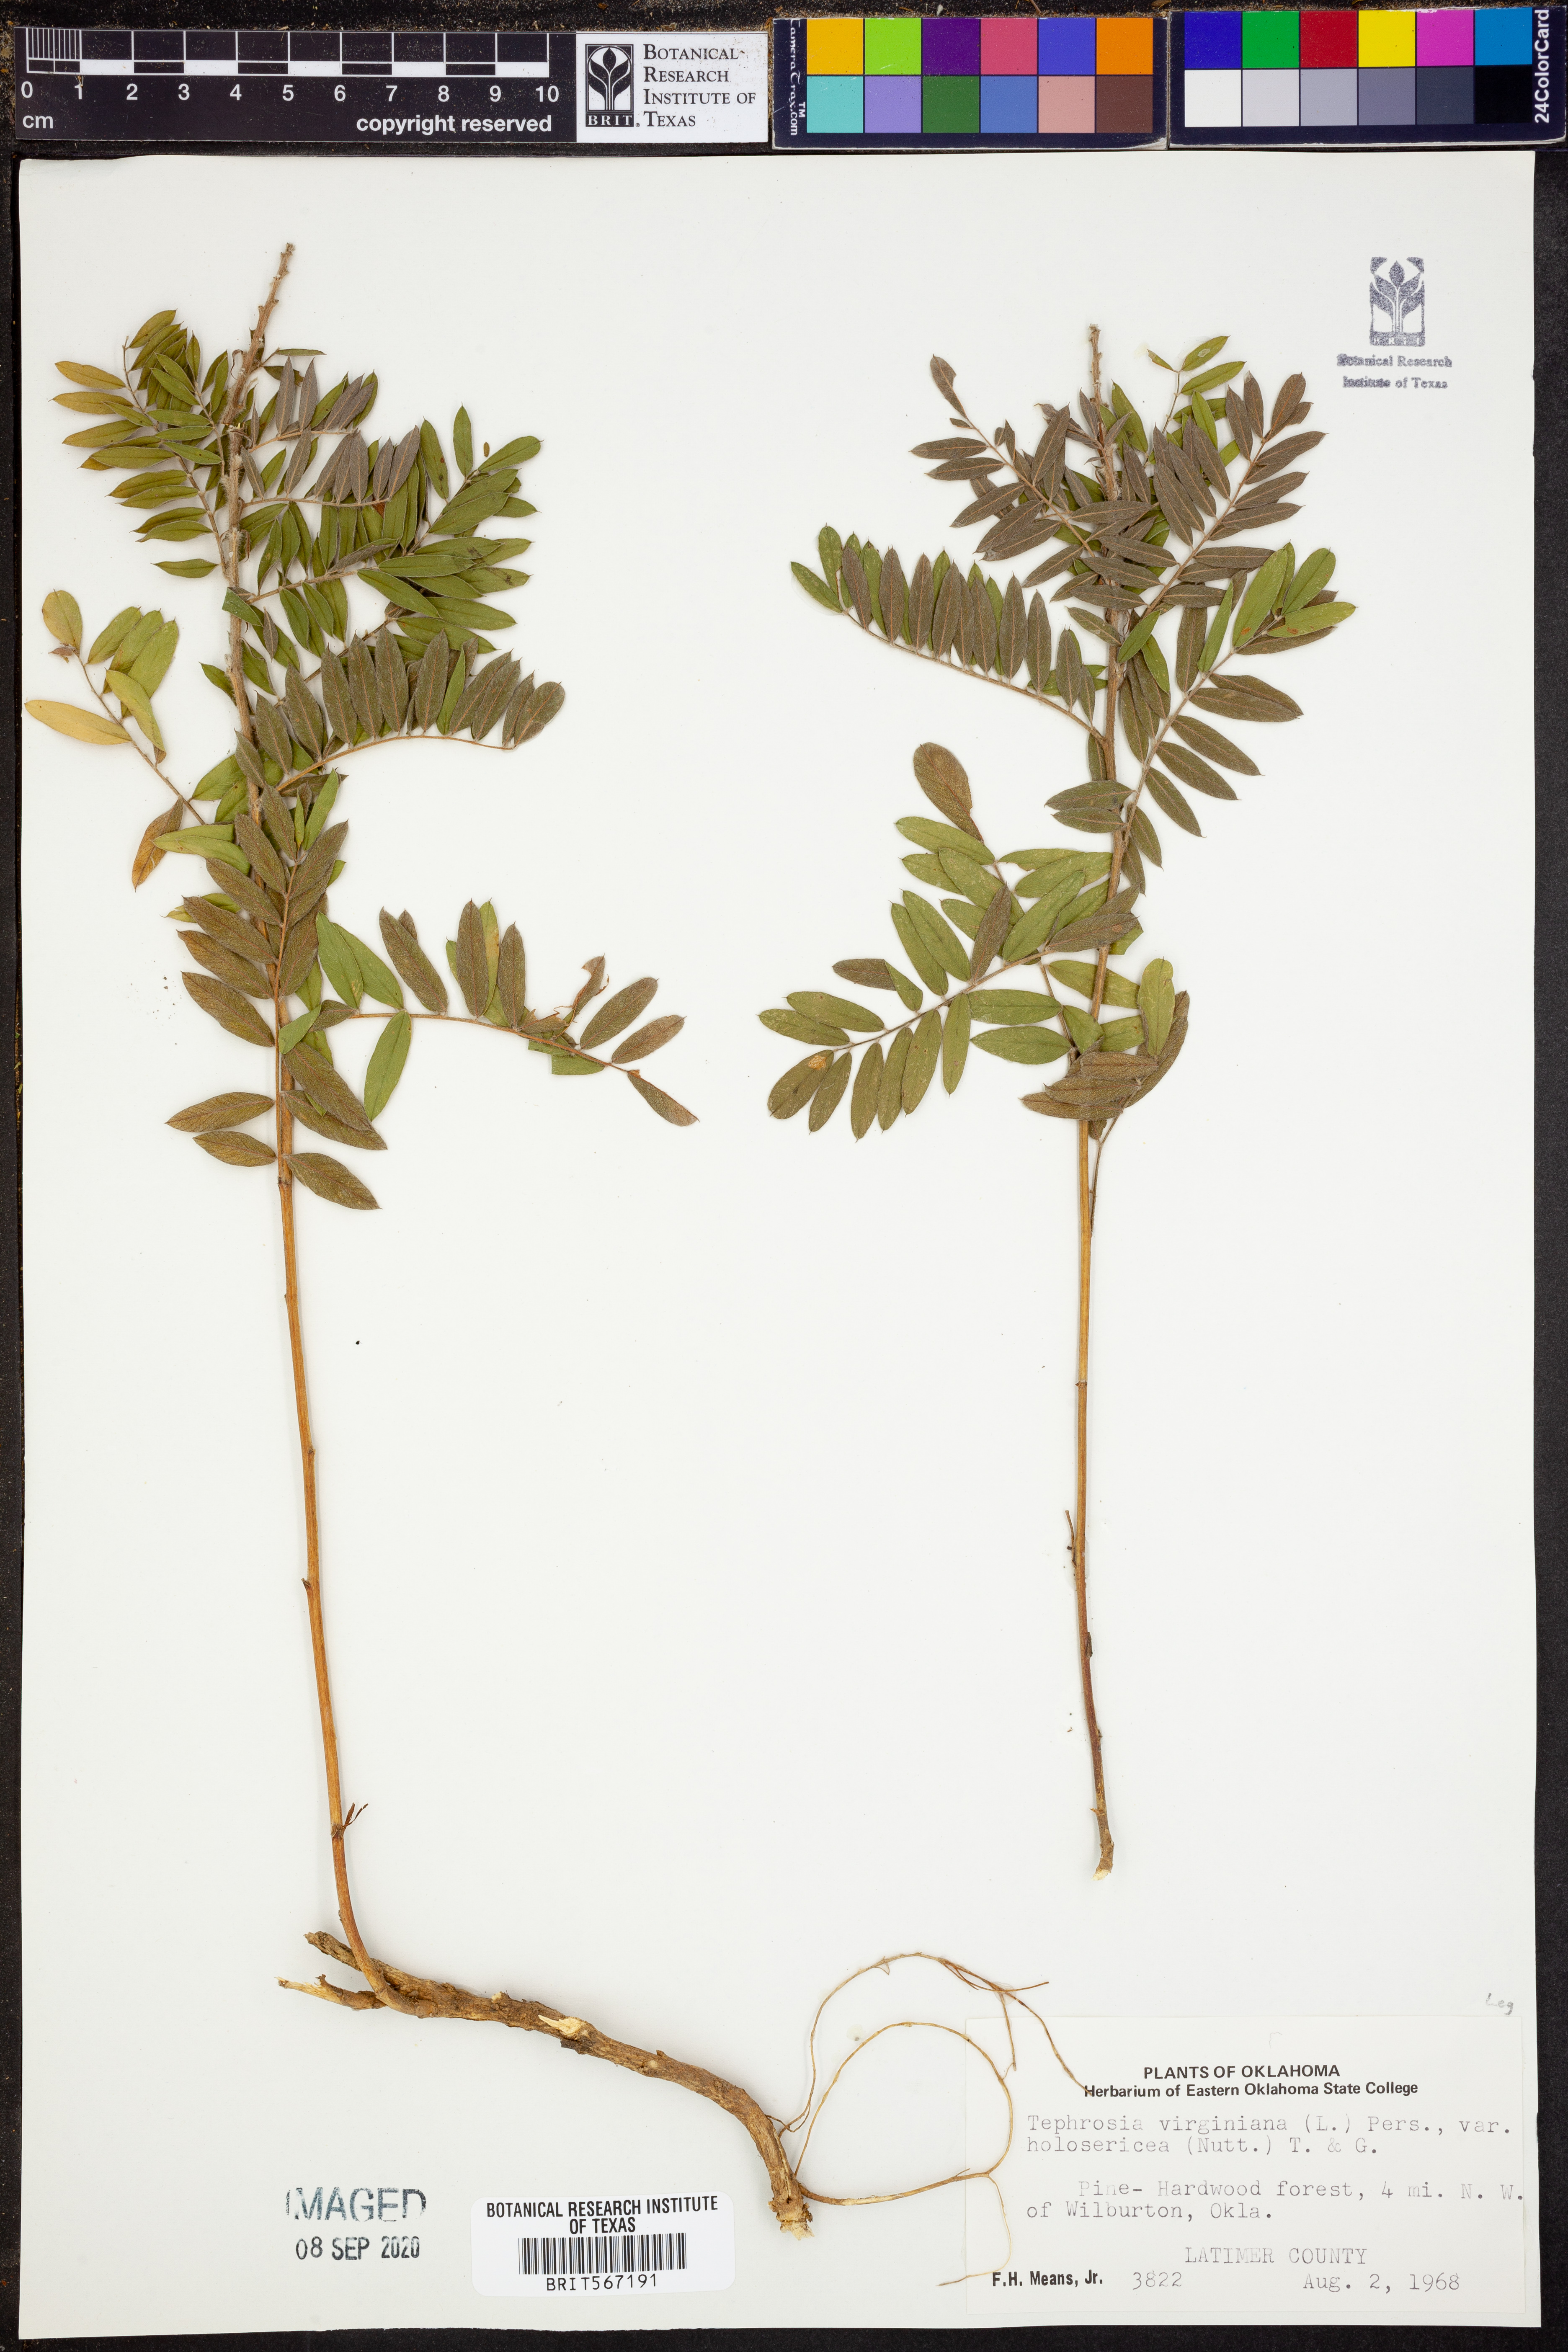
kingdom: Plantae
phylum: Tracheophyta
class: Magnoliopsida
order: Fabales
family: Fabaceae
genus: Tephrosia
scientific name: Tephrosia virginiana
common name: Rabbit-pea
